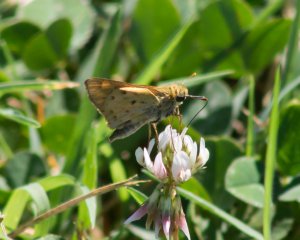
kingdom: Animalia
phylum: Arthropoda
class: Insecta
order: Lepidoptera
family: Hesperiidae
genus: Hylephila
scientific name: Hylephila phyleus
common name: Fiery Skipper
